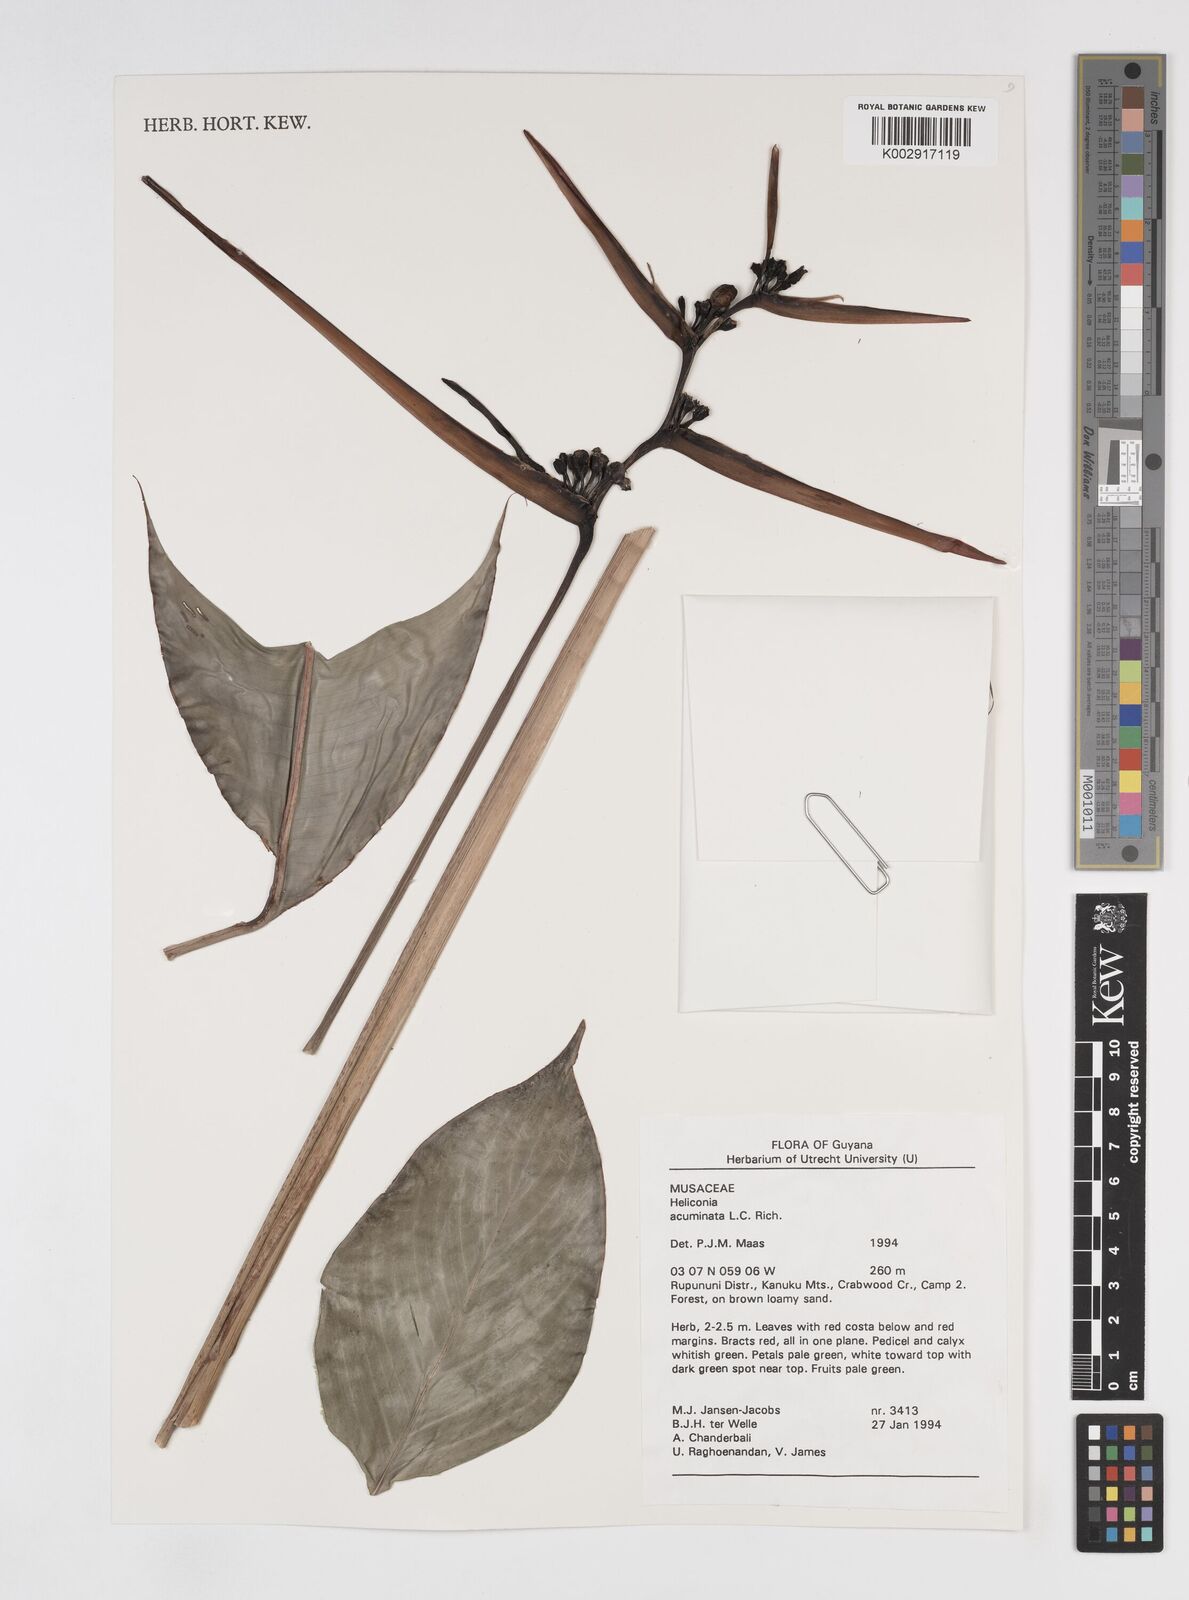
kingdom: Plantae
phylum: Tracheophyta
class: Liliopsida
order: Zingiberales
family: Heliconiaceae
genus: Heliconia
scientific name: Heliconia acuminata
